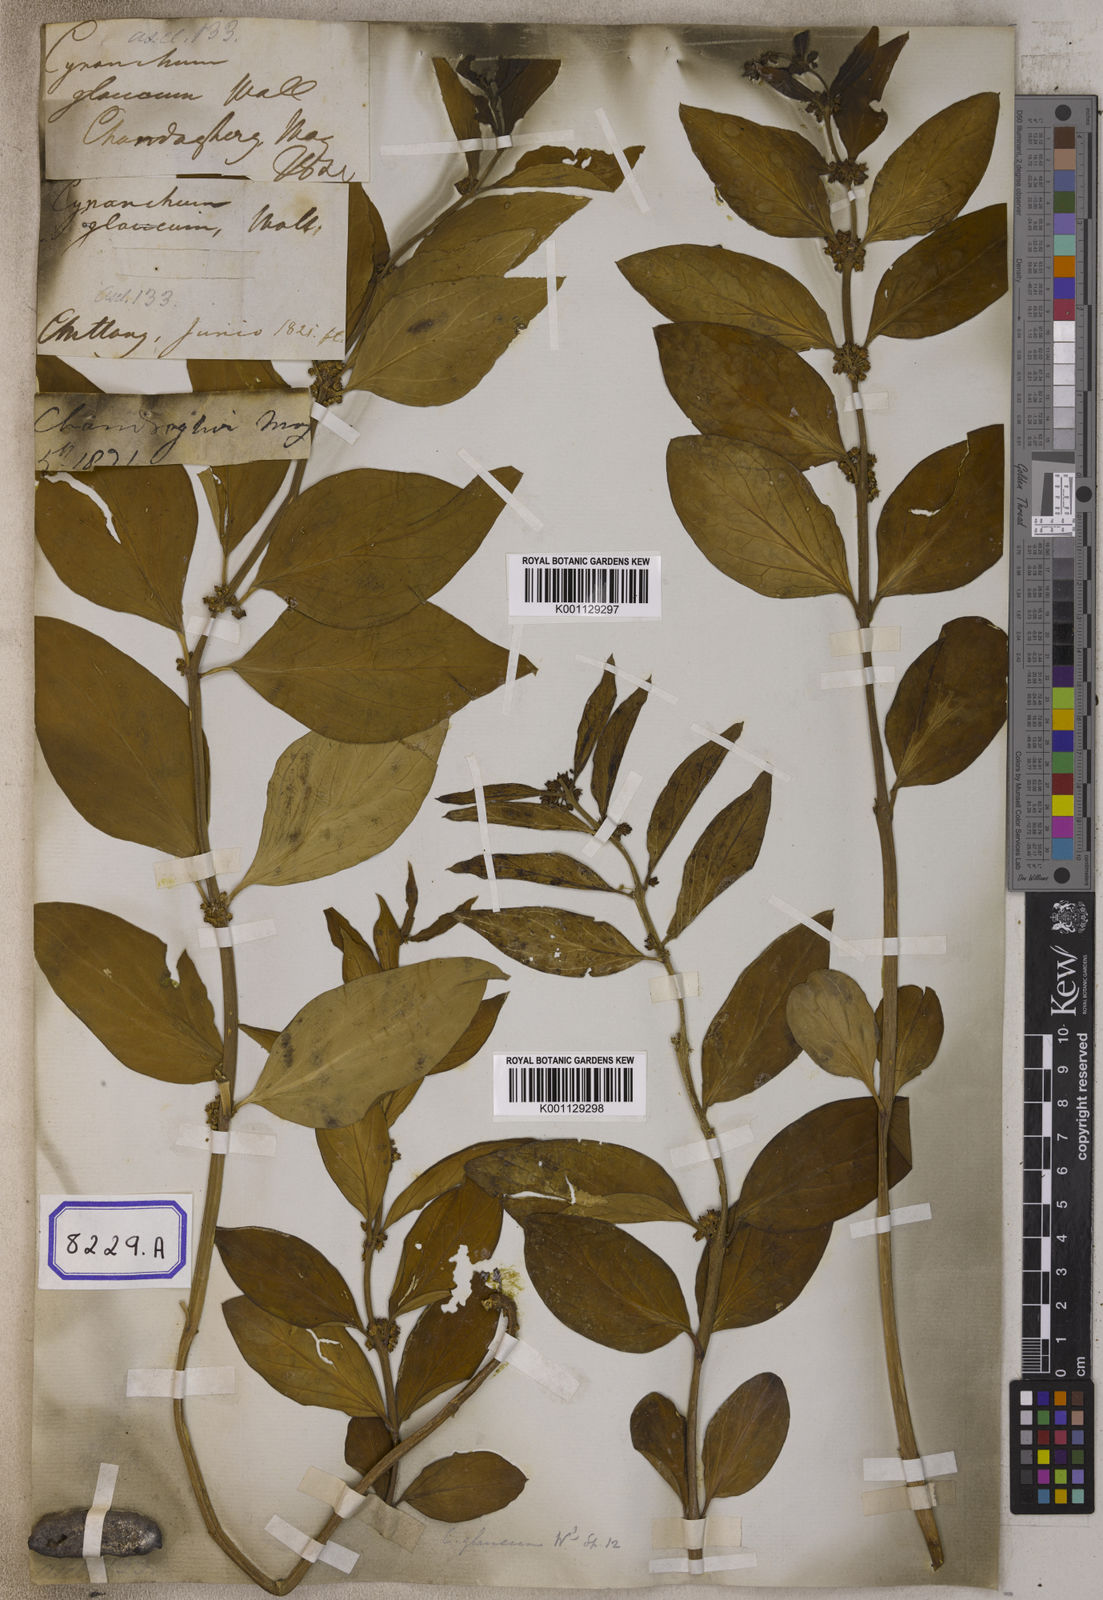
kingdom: Plantae
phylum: Tracheophyta
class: Magnoliopsida
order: Gentianales
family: Apocynaceae
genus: Cynanchum
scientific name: Cynanchum
